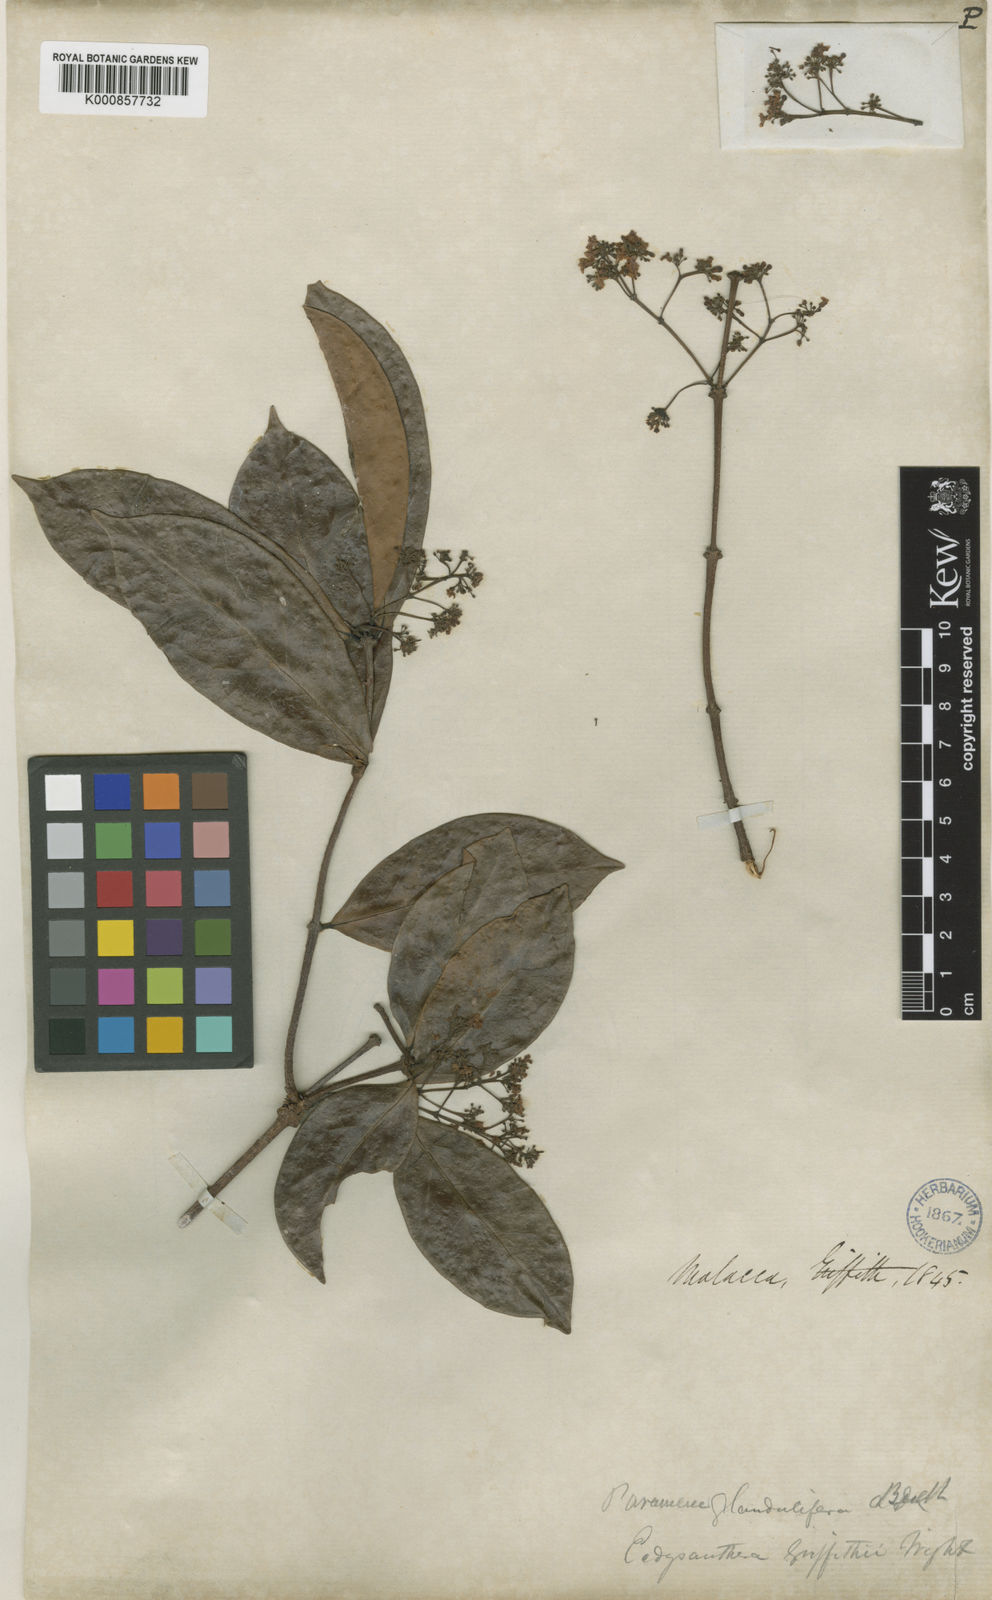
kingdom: Plantae
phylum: Tracheophyta
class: Magnoliopsida
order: Gentianales
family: Apocynaceae
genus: Urceola
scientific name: Urceola laevigata
